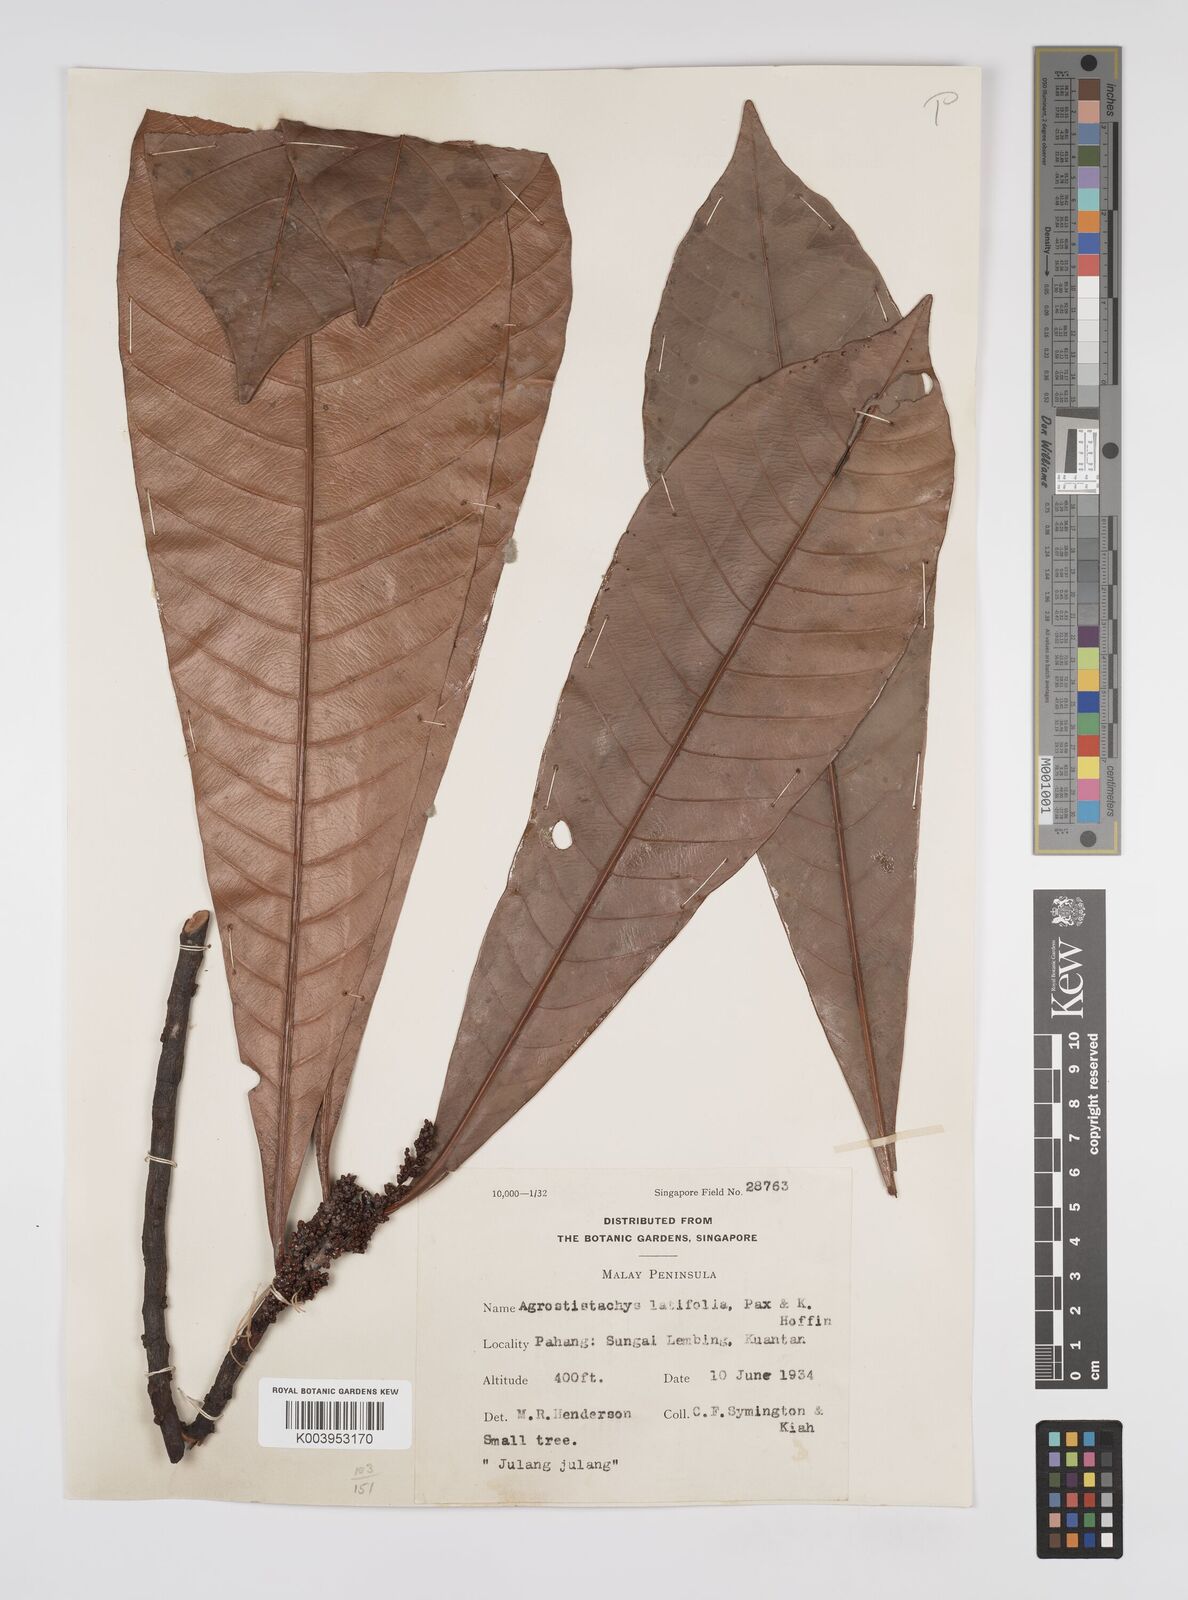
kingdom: Plantae
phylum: Tracheophyta
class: Magnoliopsida
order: Malpighiales
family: Euphorbiaceae
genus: Agrostistachys
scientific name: Agrostistachys borneensis
